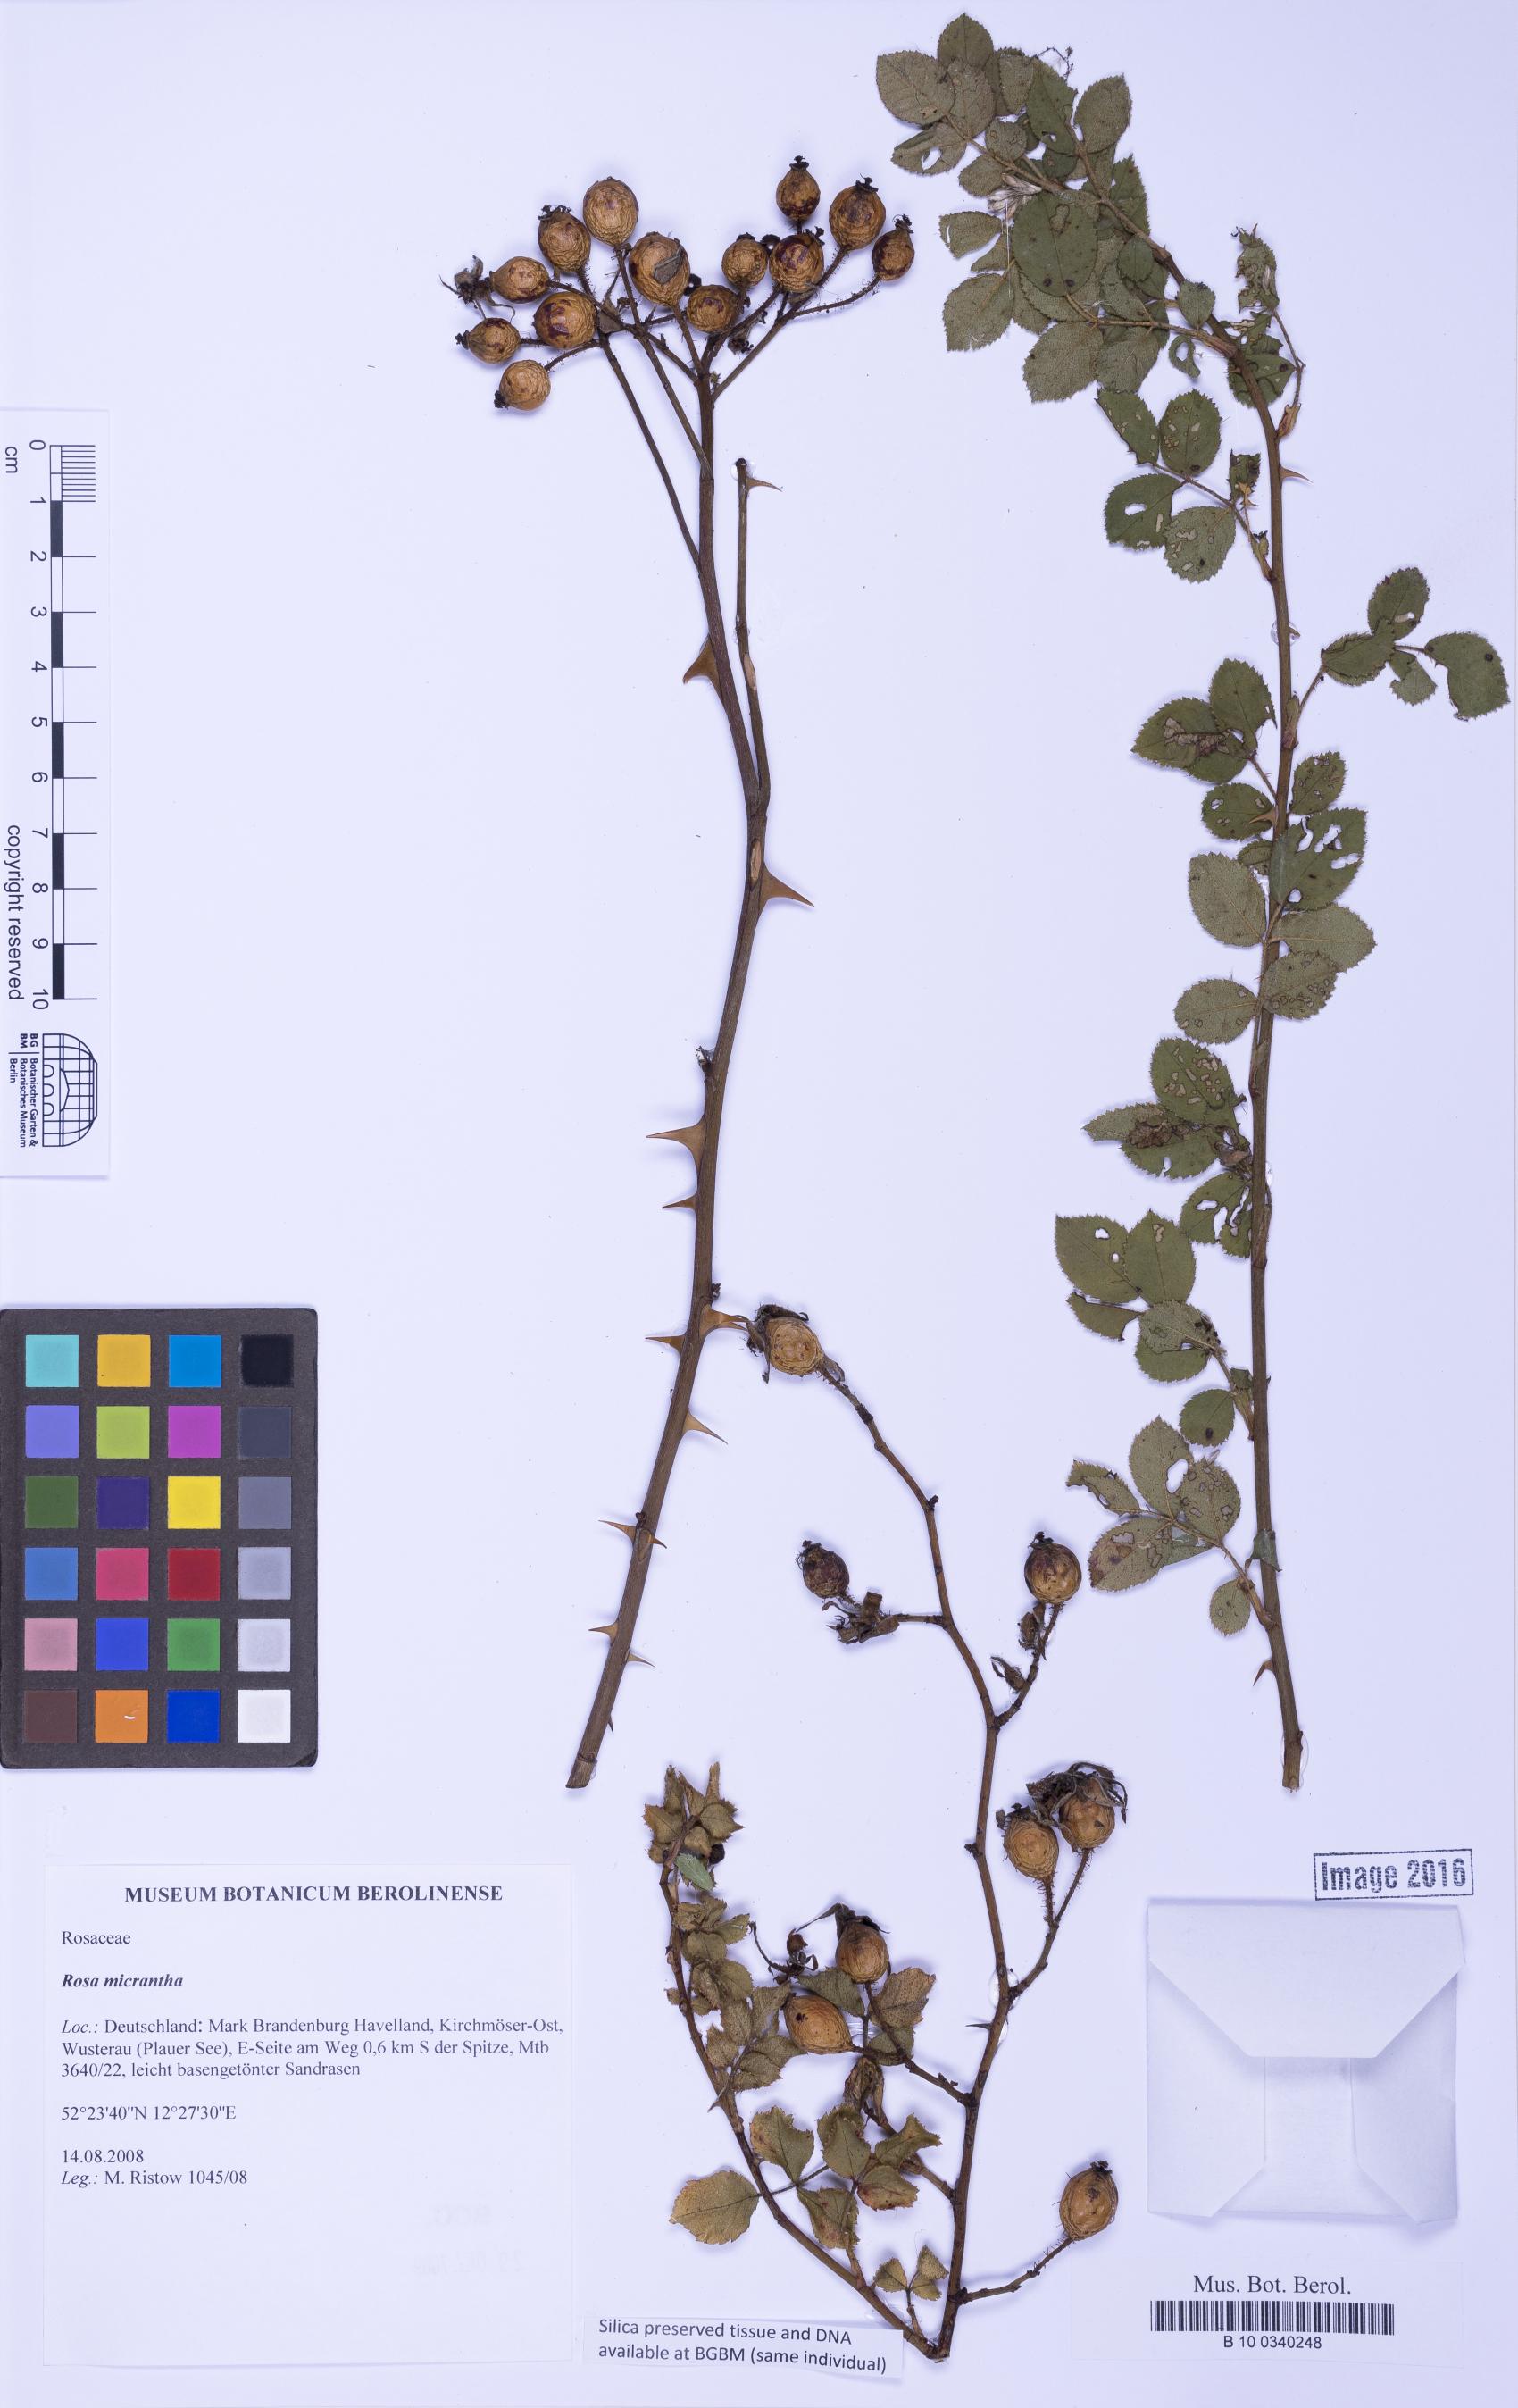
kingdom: Plantae
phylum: Tracheophyta
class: Magnoliopsida
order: Rosales
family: Rosaceae
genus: Rosa
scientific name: Rosa micrantha
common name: Small-flowered sweet-briar
